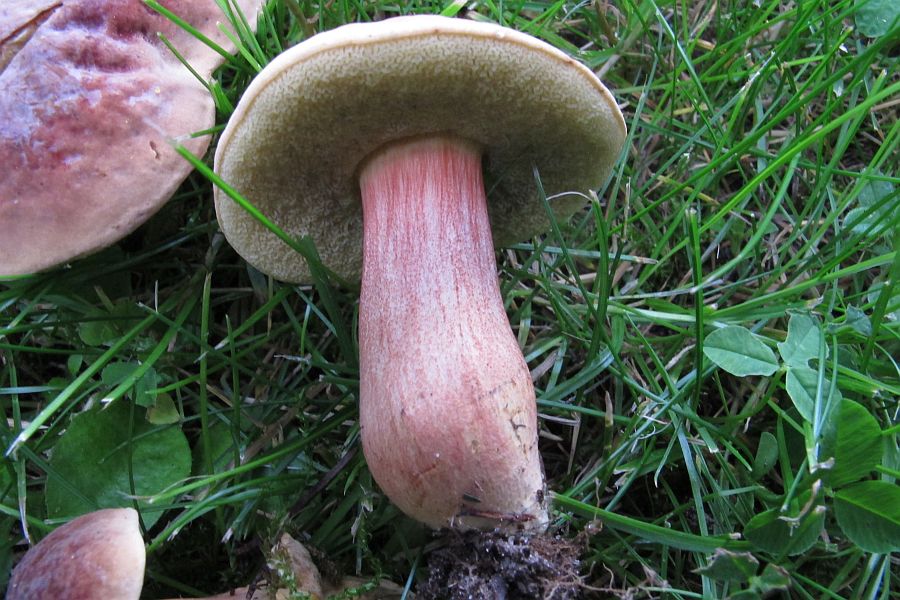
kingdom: Fungi
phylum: Basidiomycota
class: Agaricomycetes
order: Boletales
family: Boletaceae
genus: Hortiboletus
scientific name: Hortiboletus bubalinus
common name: aurora-rørhat
